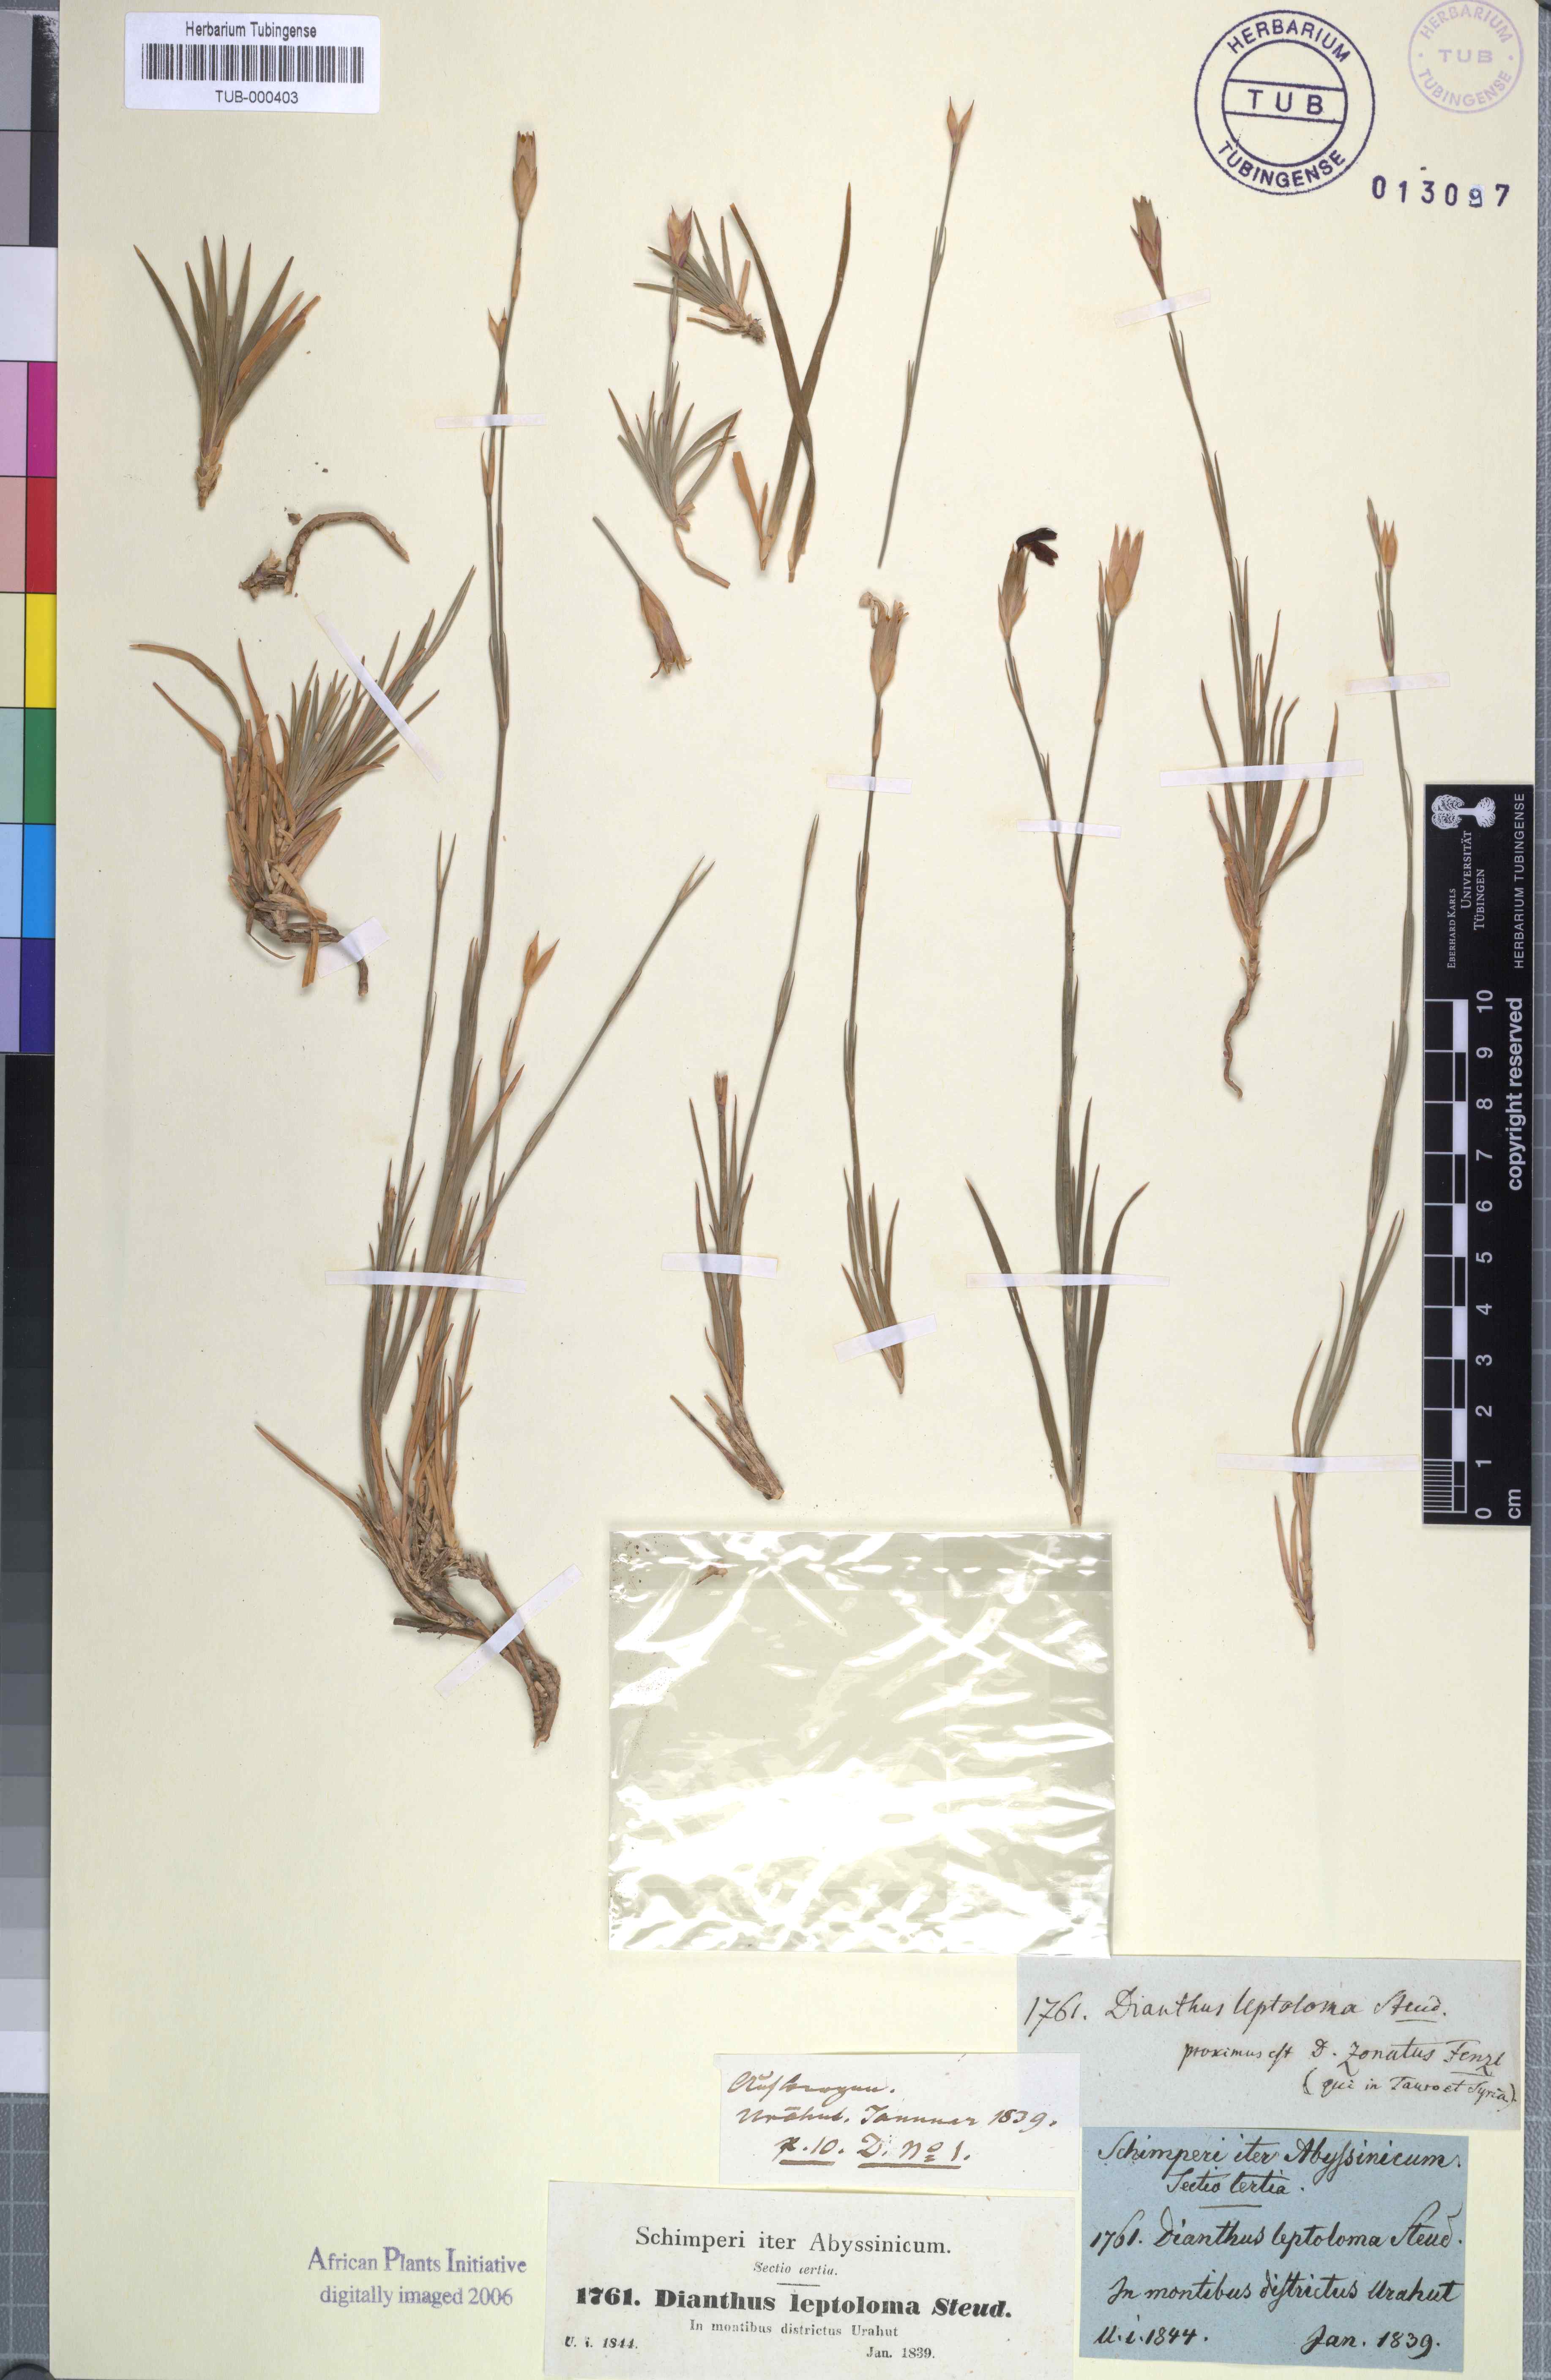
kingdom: Plantae
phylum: Tracheophyta
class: Magnoliopsida
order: Caryophyllales
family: Caryophyllaceae
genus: Dianthus
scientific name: Dianthus leptoloma
